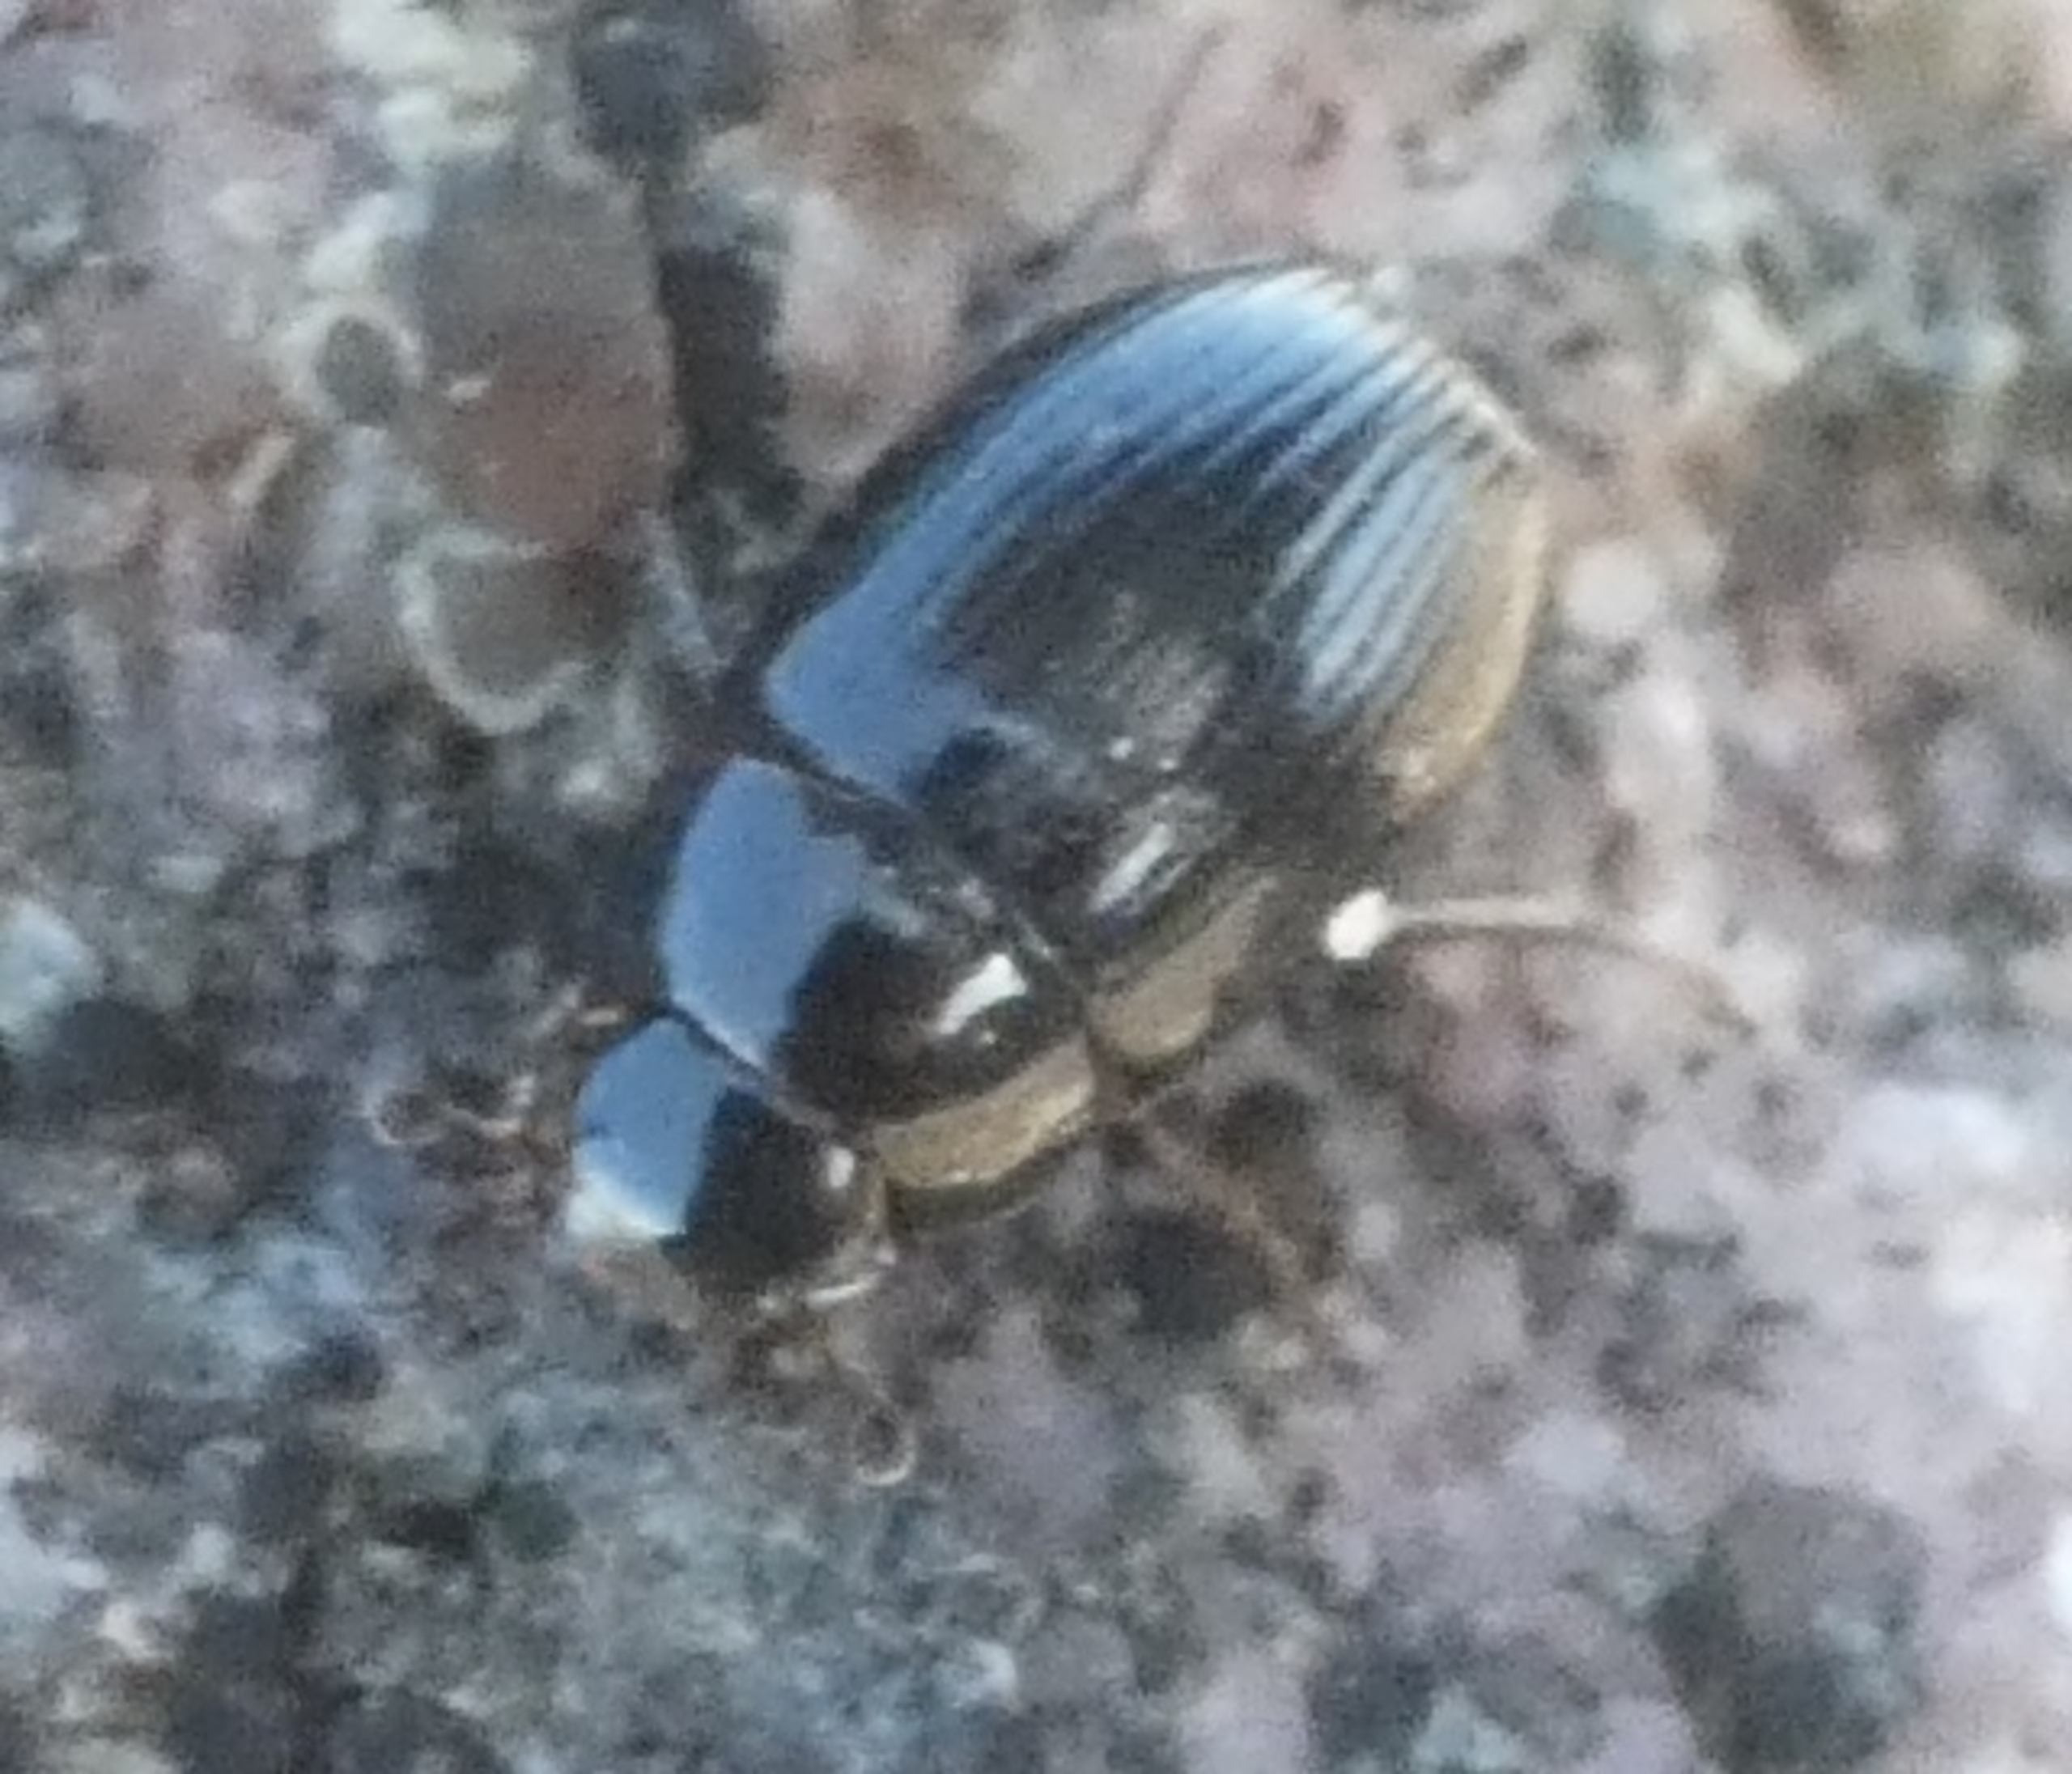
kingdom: Animalia
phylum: Arthropoda
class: Insecta
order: Coleoptera
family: Hydrophilidae
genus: Cercyon
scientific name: Cercyon
